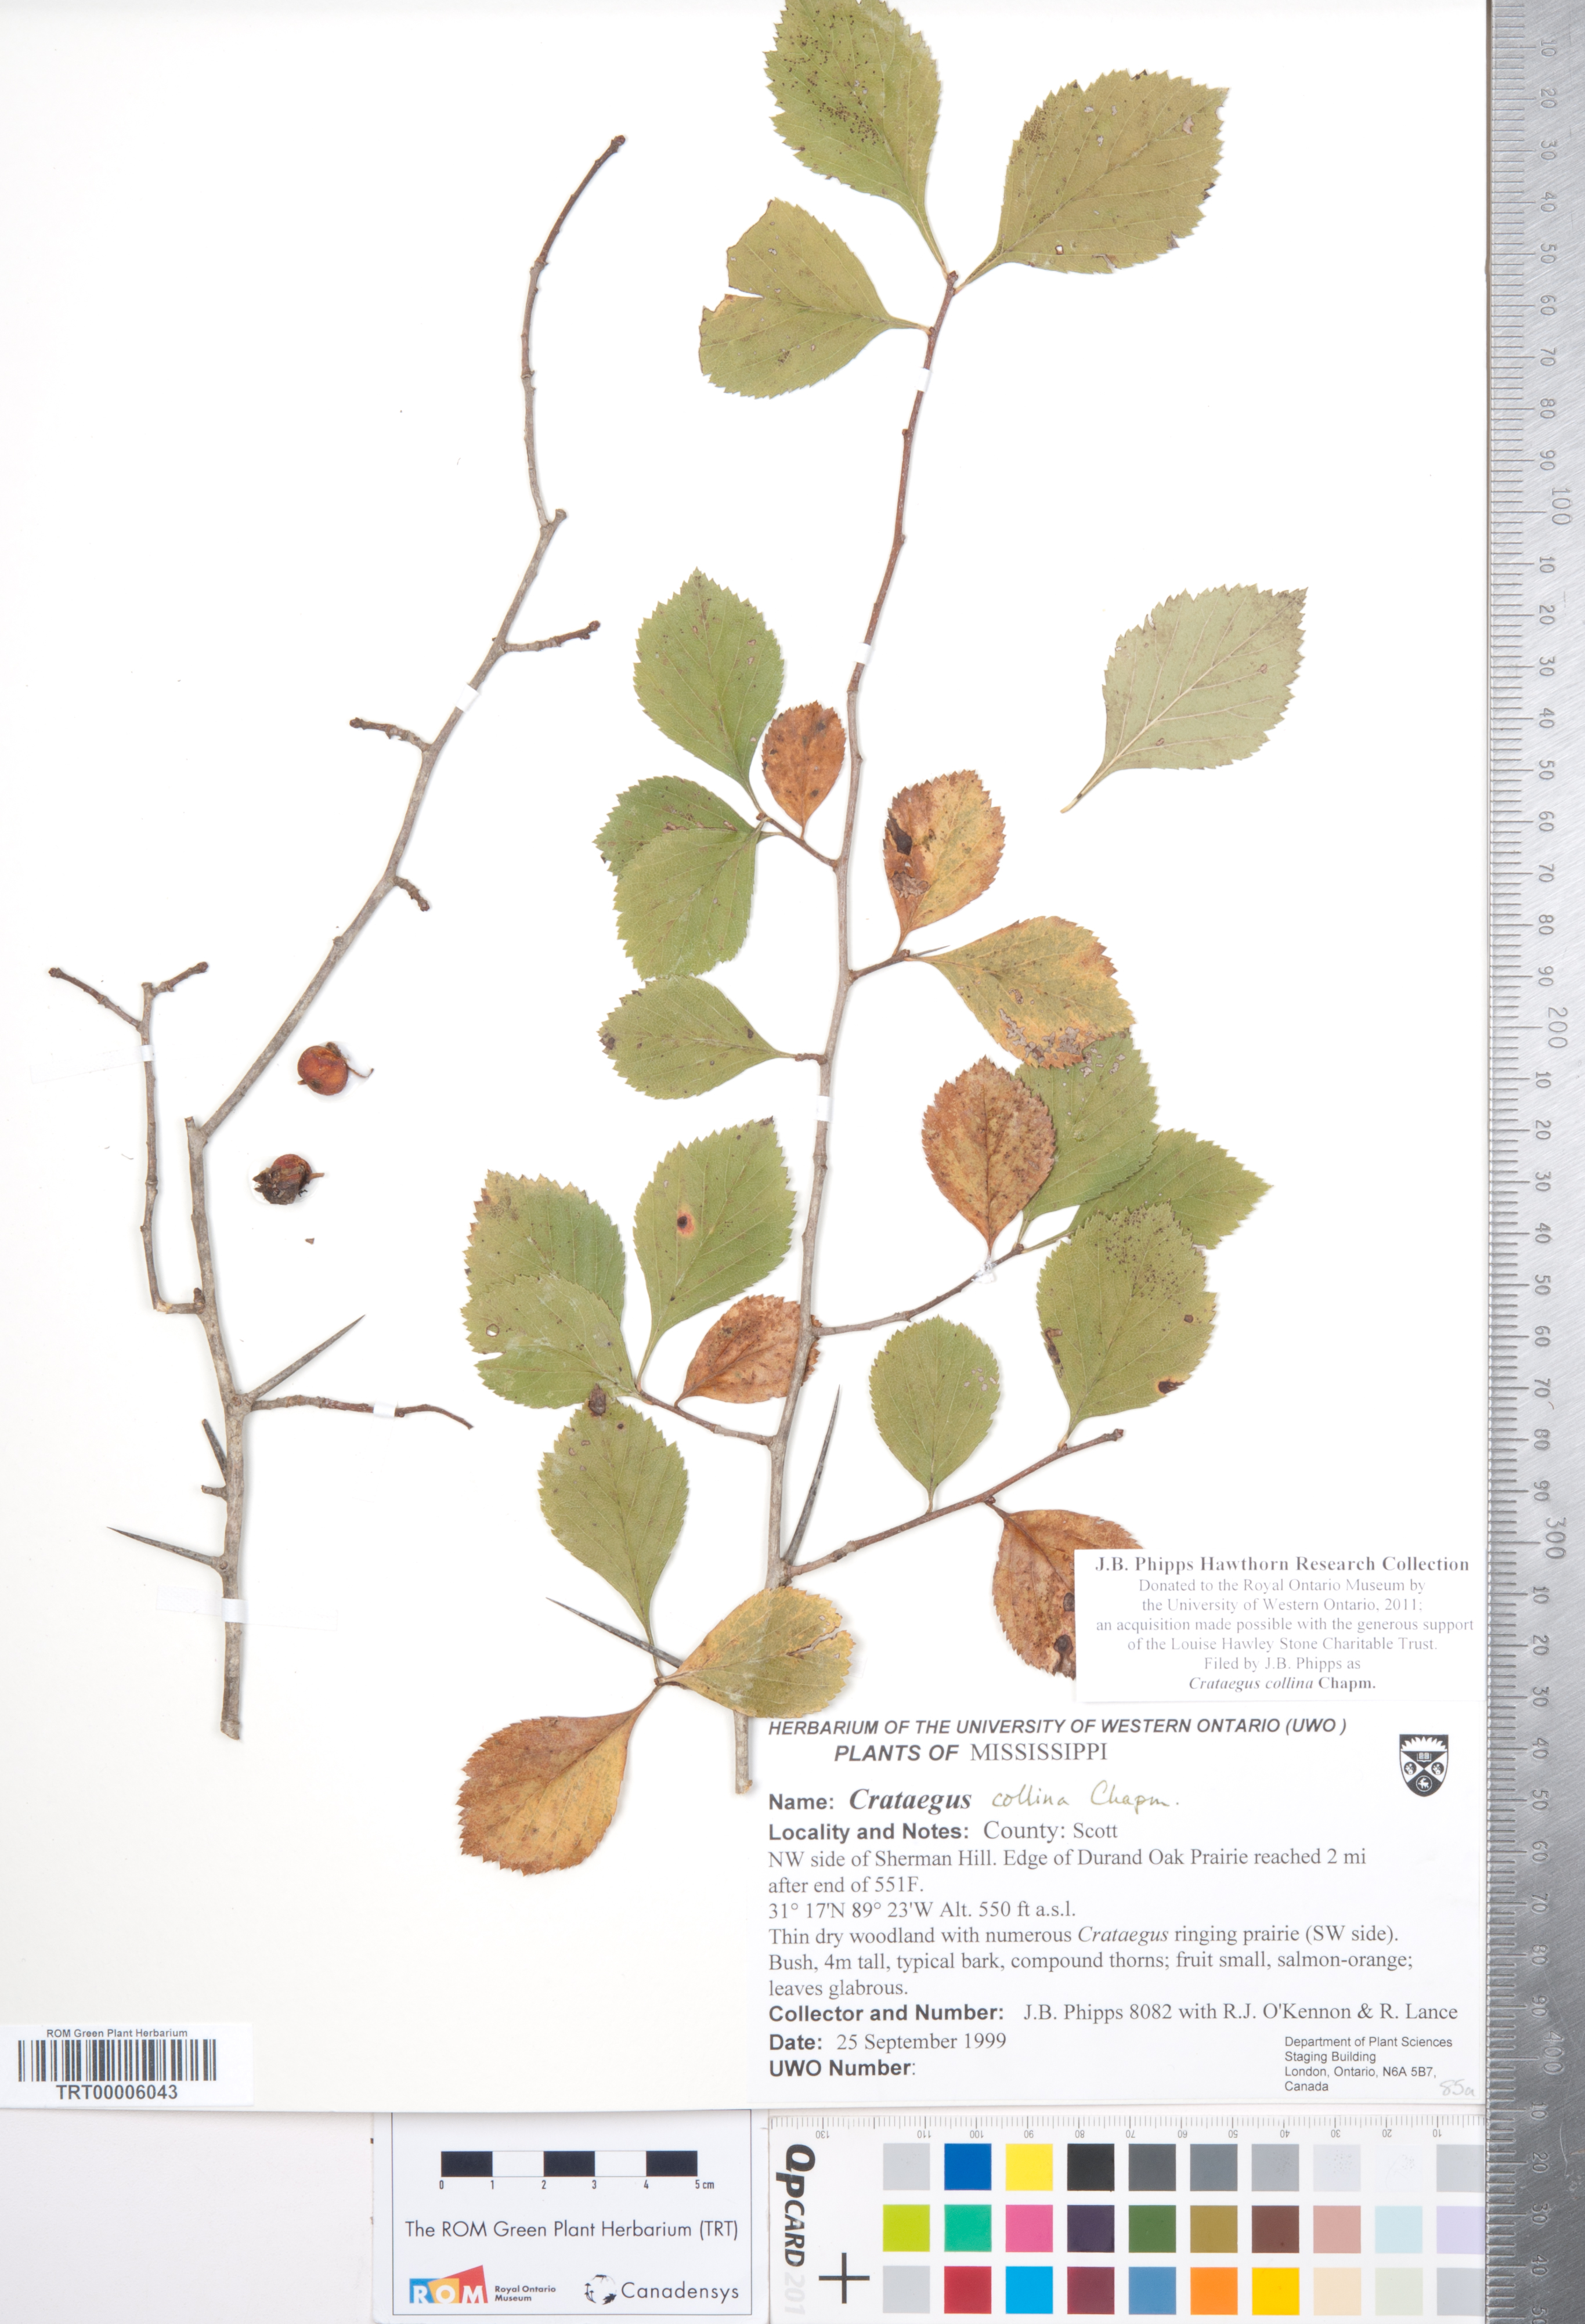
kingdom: Plantae
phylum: Tracheophyta
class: Magnoliopsida
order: Rosales
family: Rosaceae
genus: Crataegus
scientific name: Crataegus collina
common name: Hillside hawthorn
